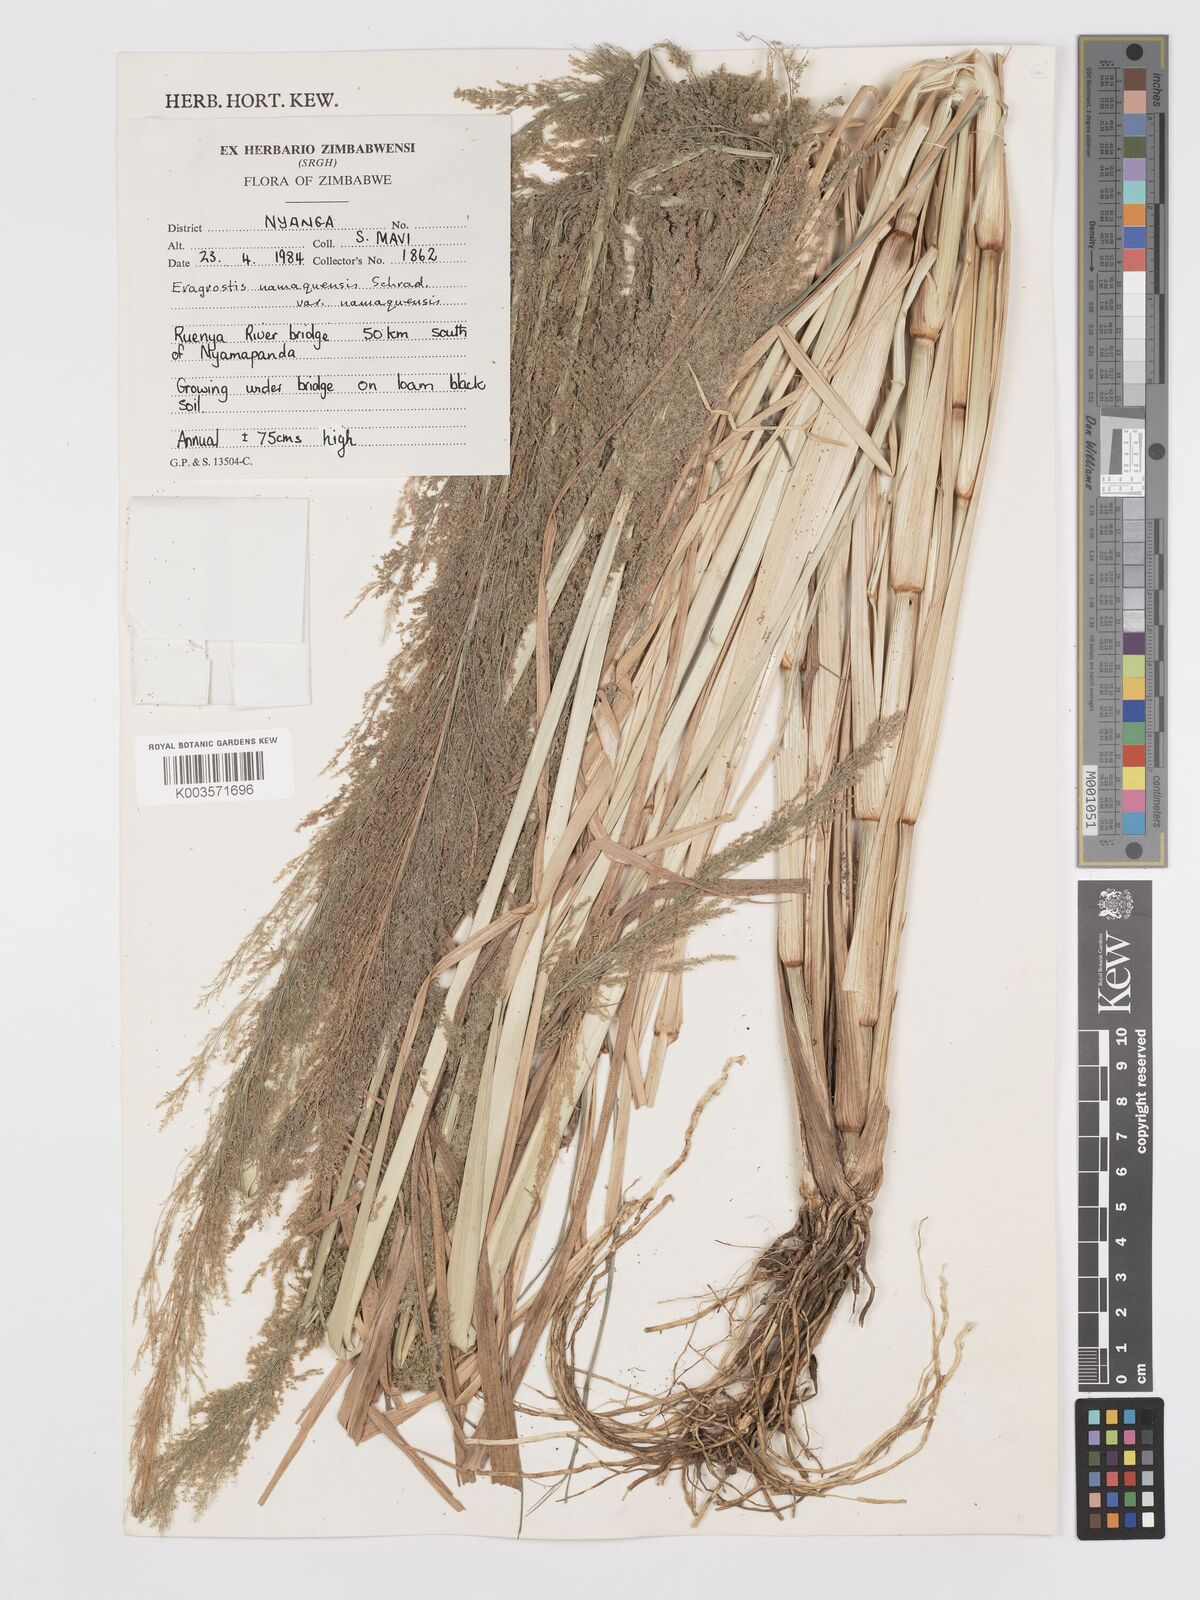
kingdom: Plantae
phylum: Tracheophyta
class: Liliopsida
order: Poales
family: Poaceae
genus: Eragrostis
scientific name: Eragrostis japonica
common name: Pond lovegrass
